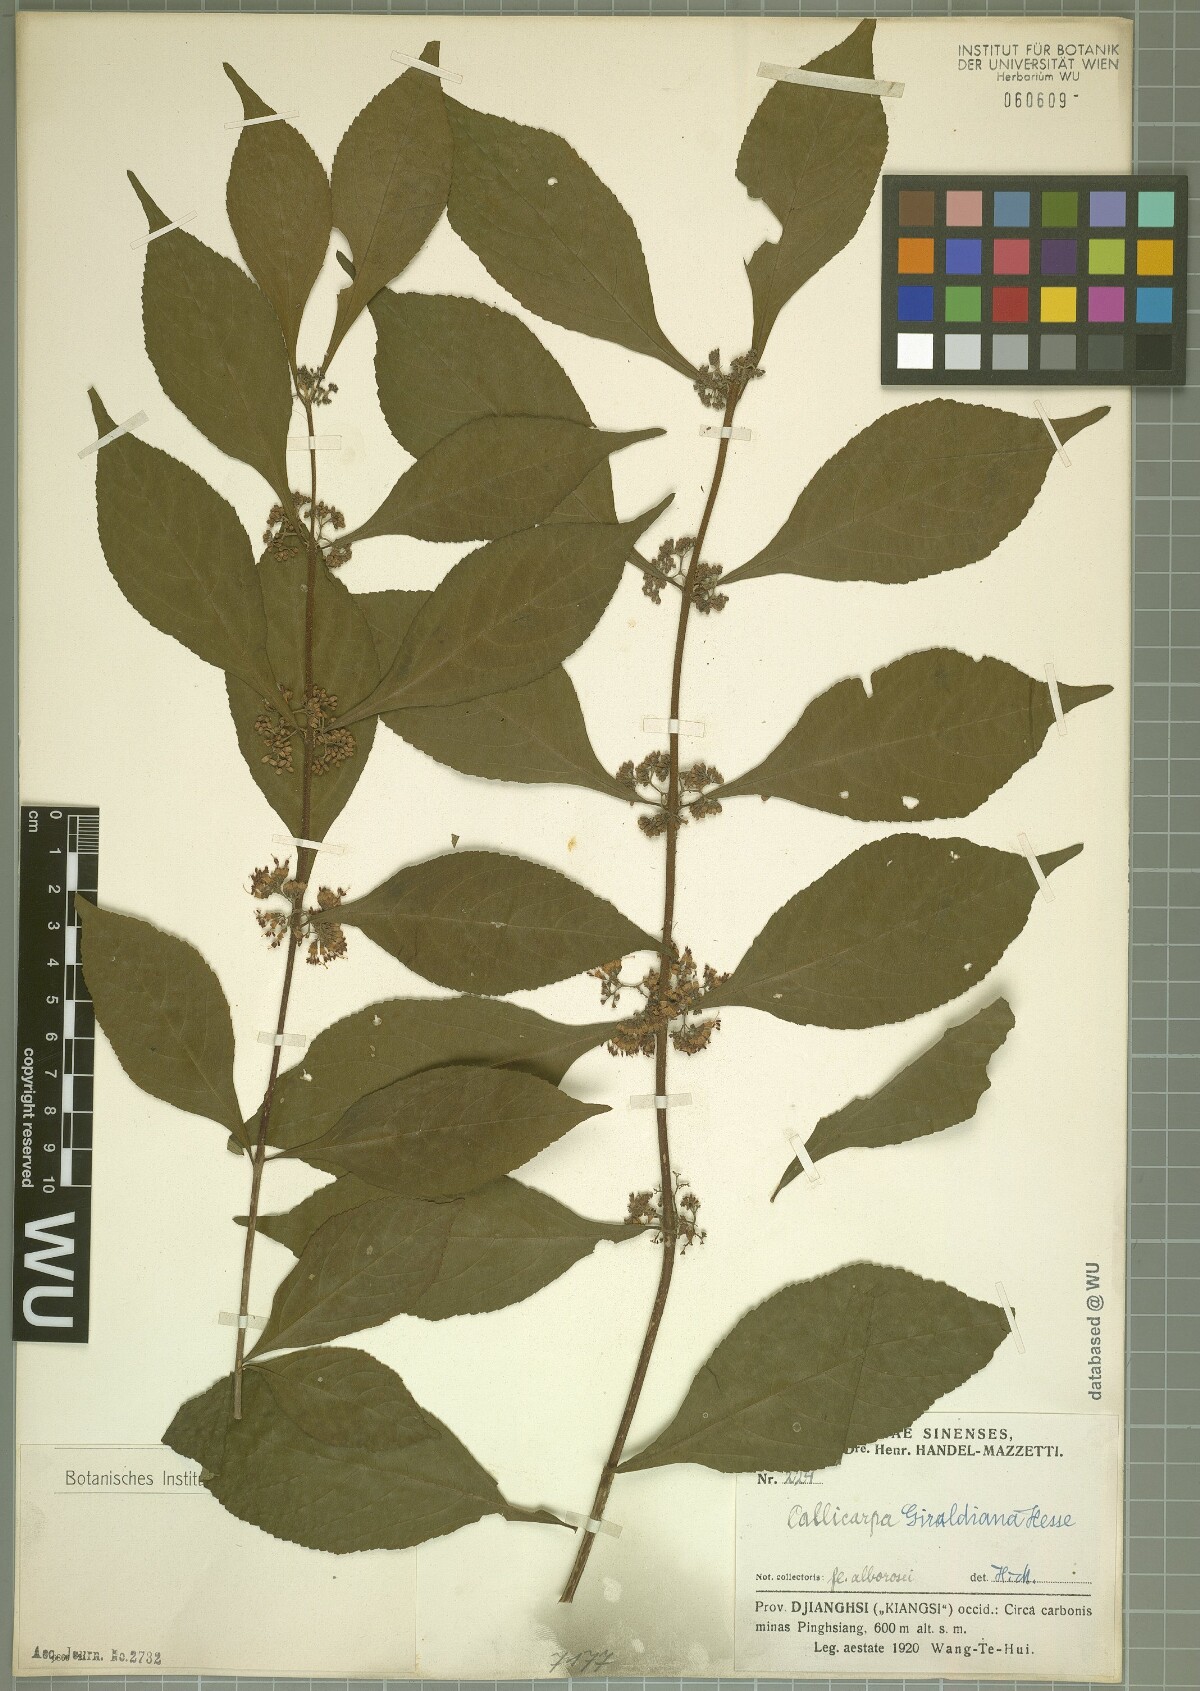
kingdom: Plantae
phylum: Tracheophyta
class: Magnoliopsida
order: Lamiales
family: Lamiaceae
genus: Callicarpa
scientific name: Callicarpa giraldii
